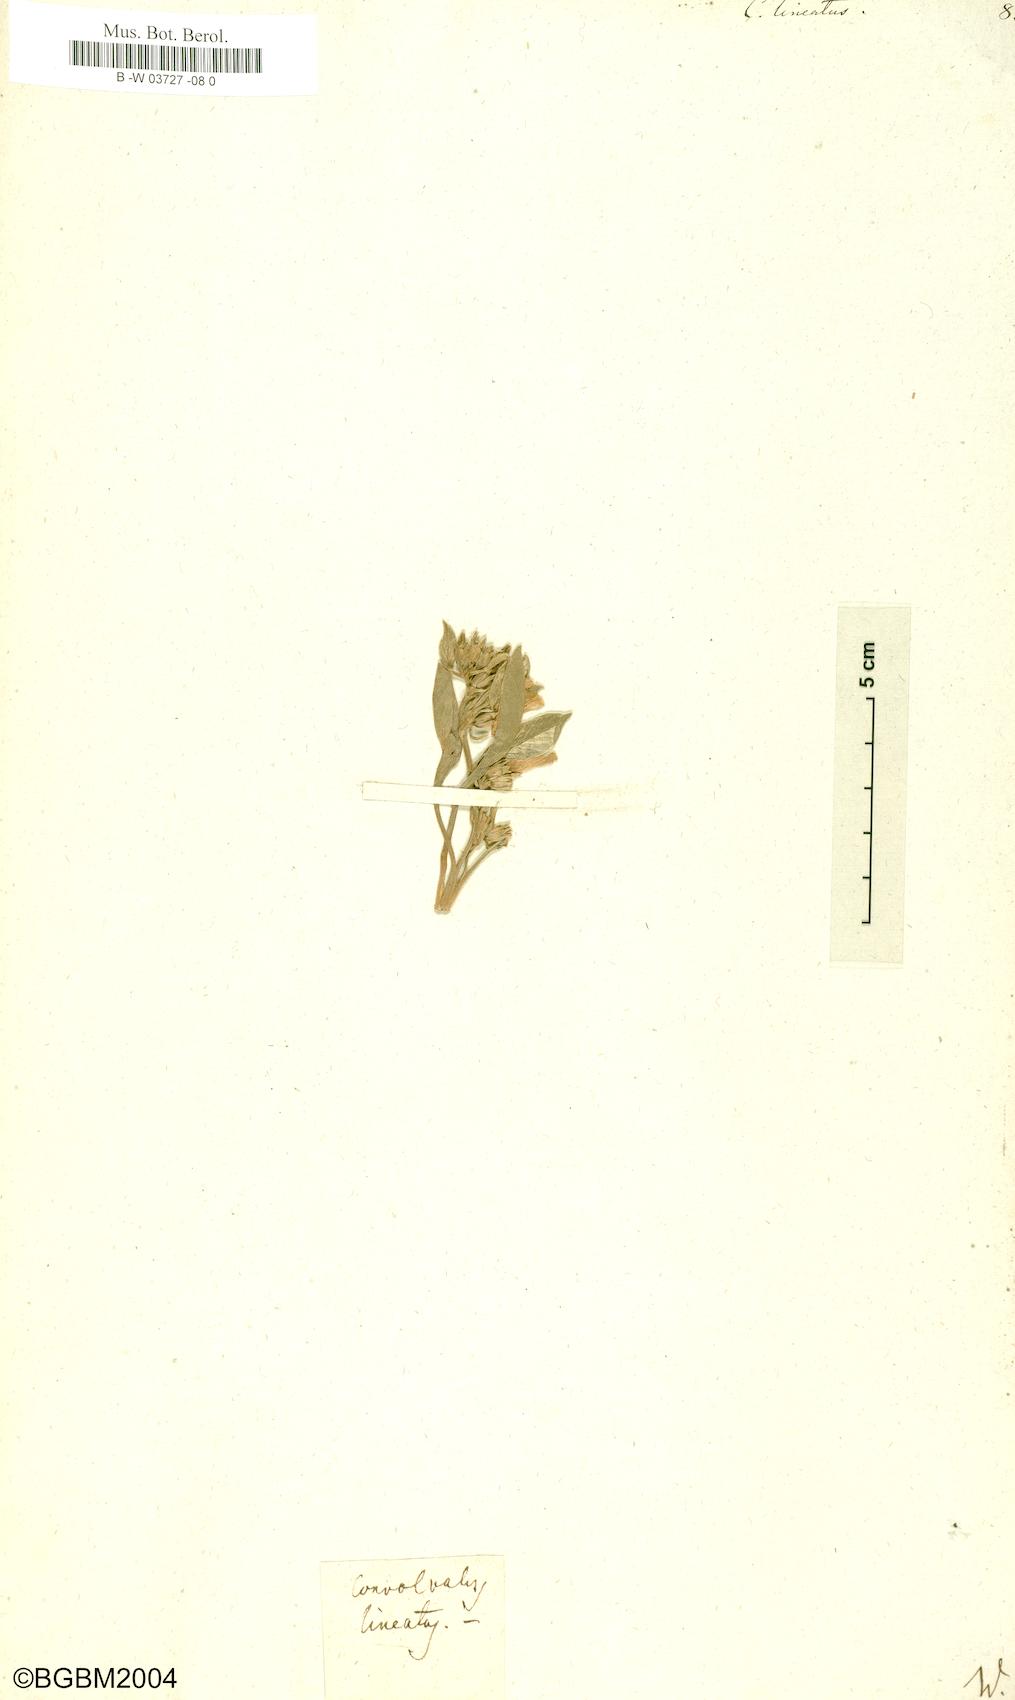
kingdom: Plantae
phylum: Tracheophyta
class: Magnoliopsida
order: Solanales
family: Convolvulaceae
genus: Convolvulus
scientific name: Convolvulus lineatus
